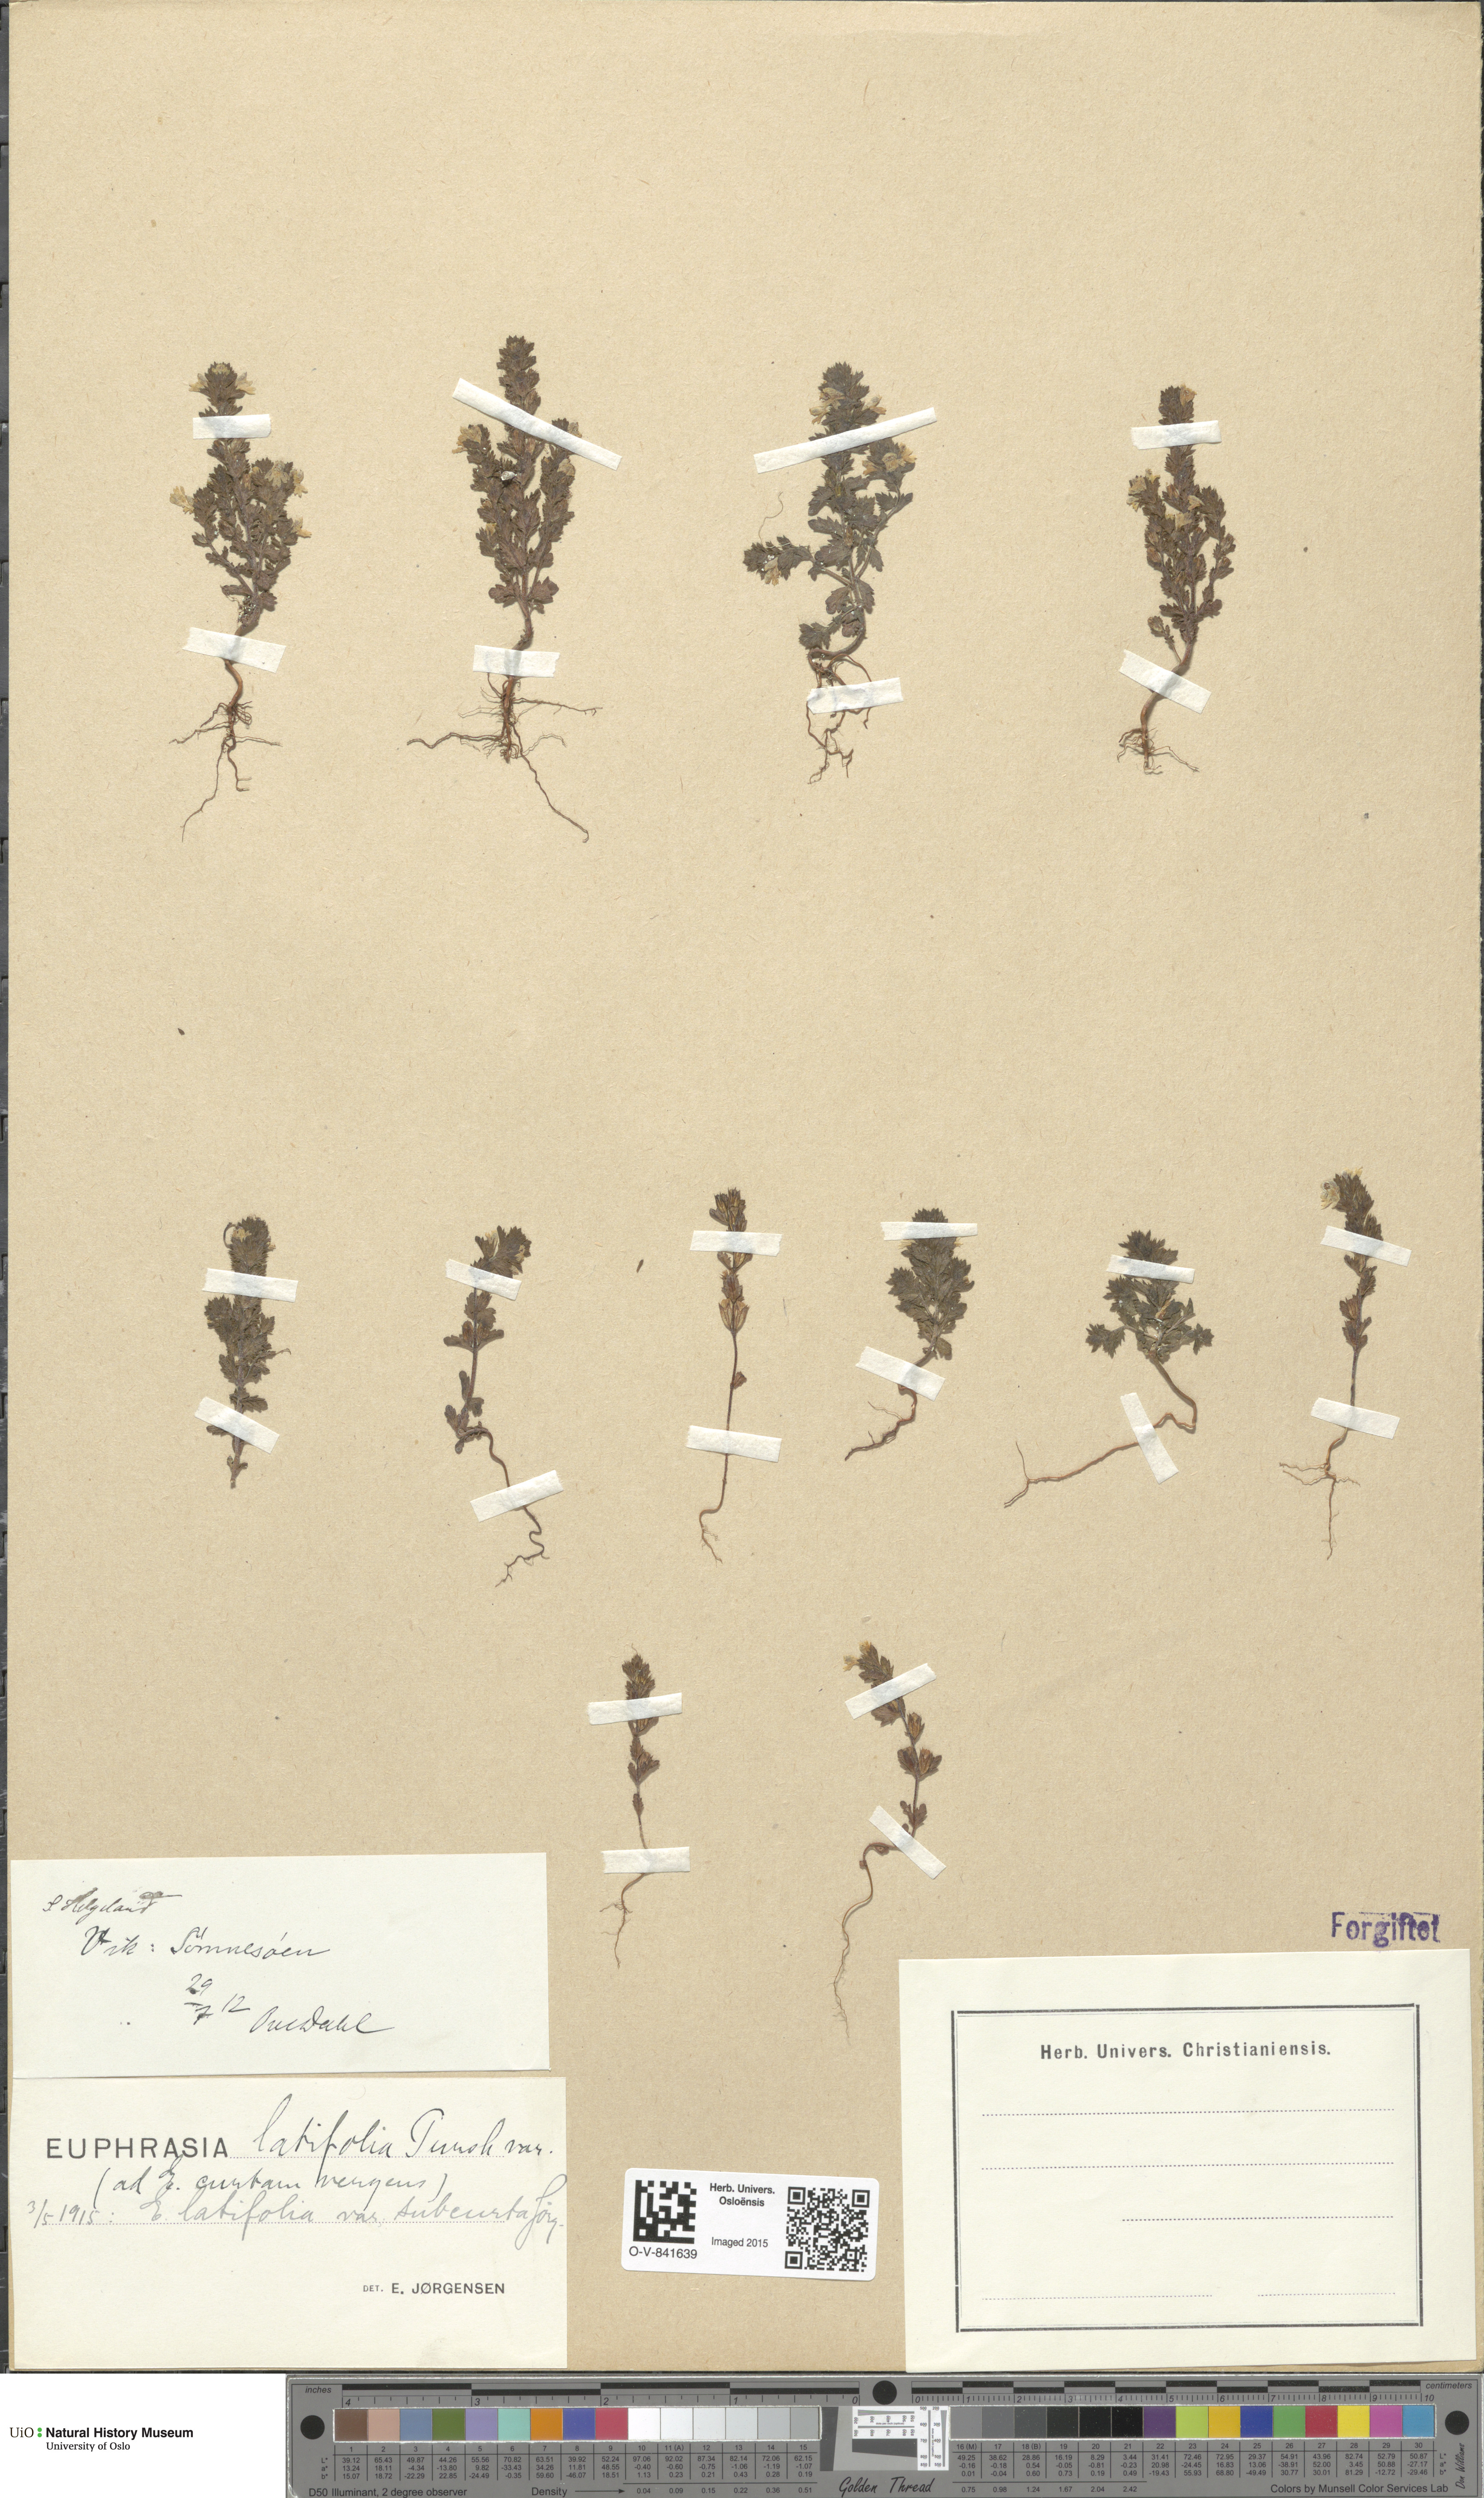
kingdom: Plantae
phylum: Tracheophyta
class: Magnoliopsida
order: Lamiales
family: Orobanchaceae
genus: Euphrasia
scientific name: Euphrasia wettsteinii
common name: Wettstein's eyebright
